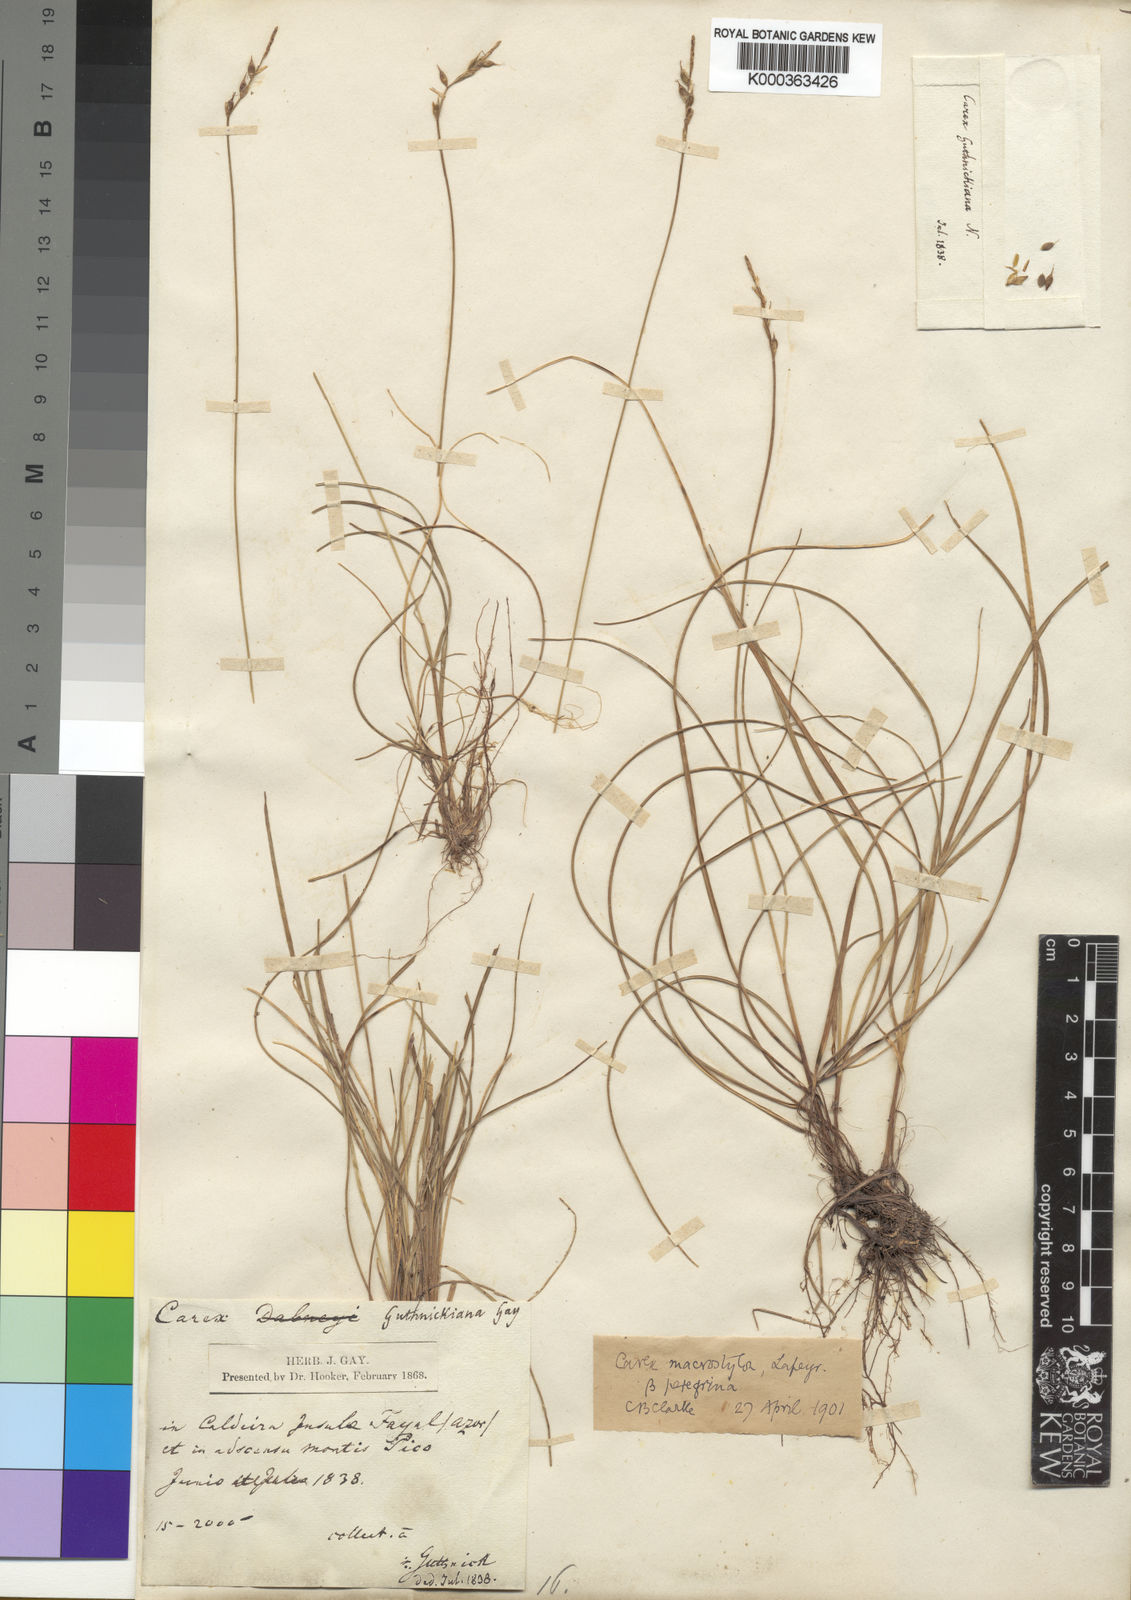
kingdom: Plantae
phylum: Tracheophyta
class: Liliopsida
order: Poales
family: Cyperaceae
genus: Carex
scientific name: Carex peregrina
